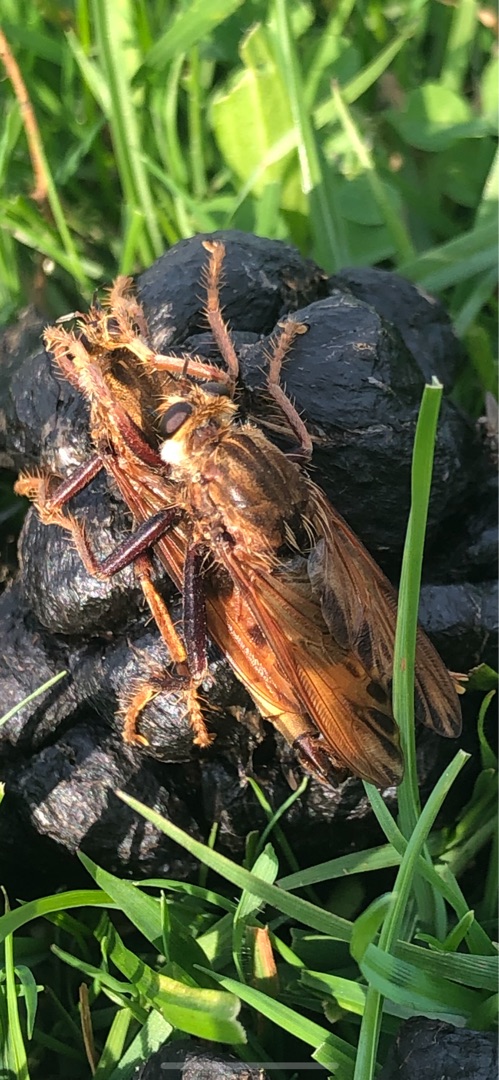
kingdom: Animalia
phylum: Arthropoda
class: Insecta
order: Diptera
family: Asilidae
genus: Asilus
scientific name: Asilus crabroniformis
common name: Stor gødningsrovflue
